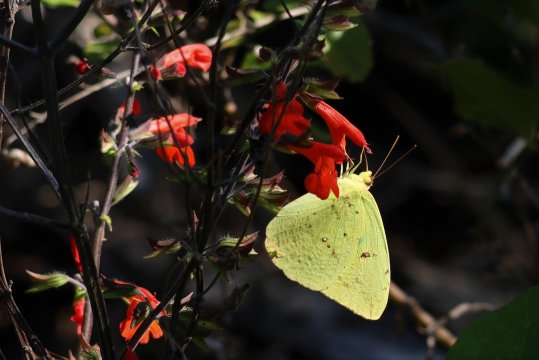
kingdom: Animalia
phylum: Arthropoda
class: Insecta
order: Lepidoptera
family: Pieridae
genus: Phoebis
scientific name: Phoebis sennae
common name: Cloudless Sulphur
